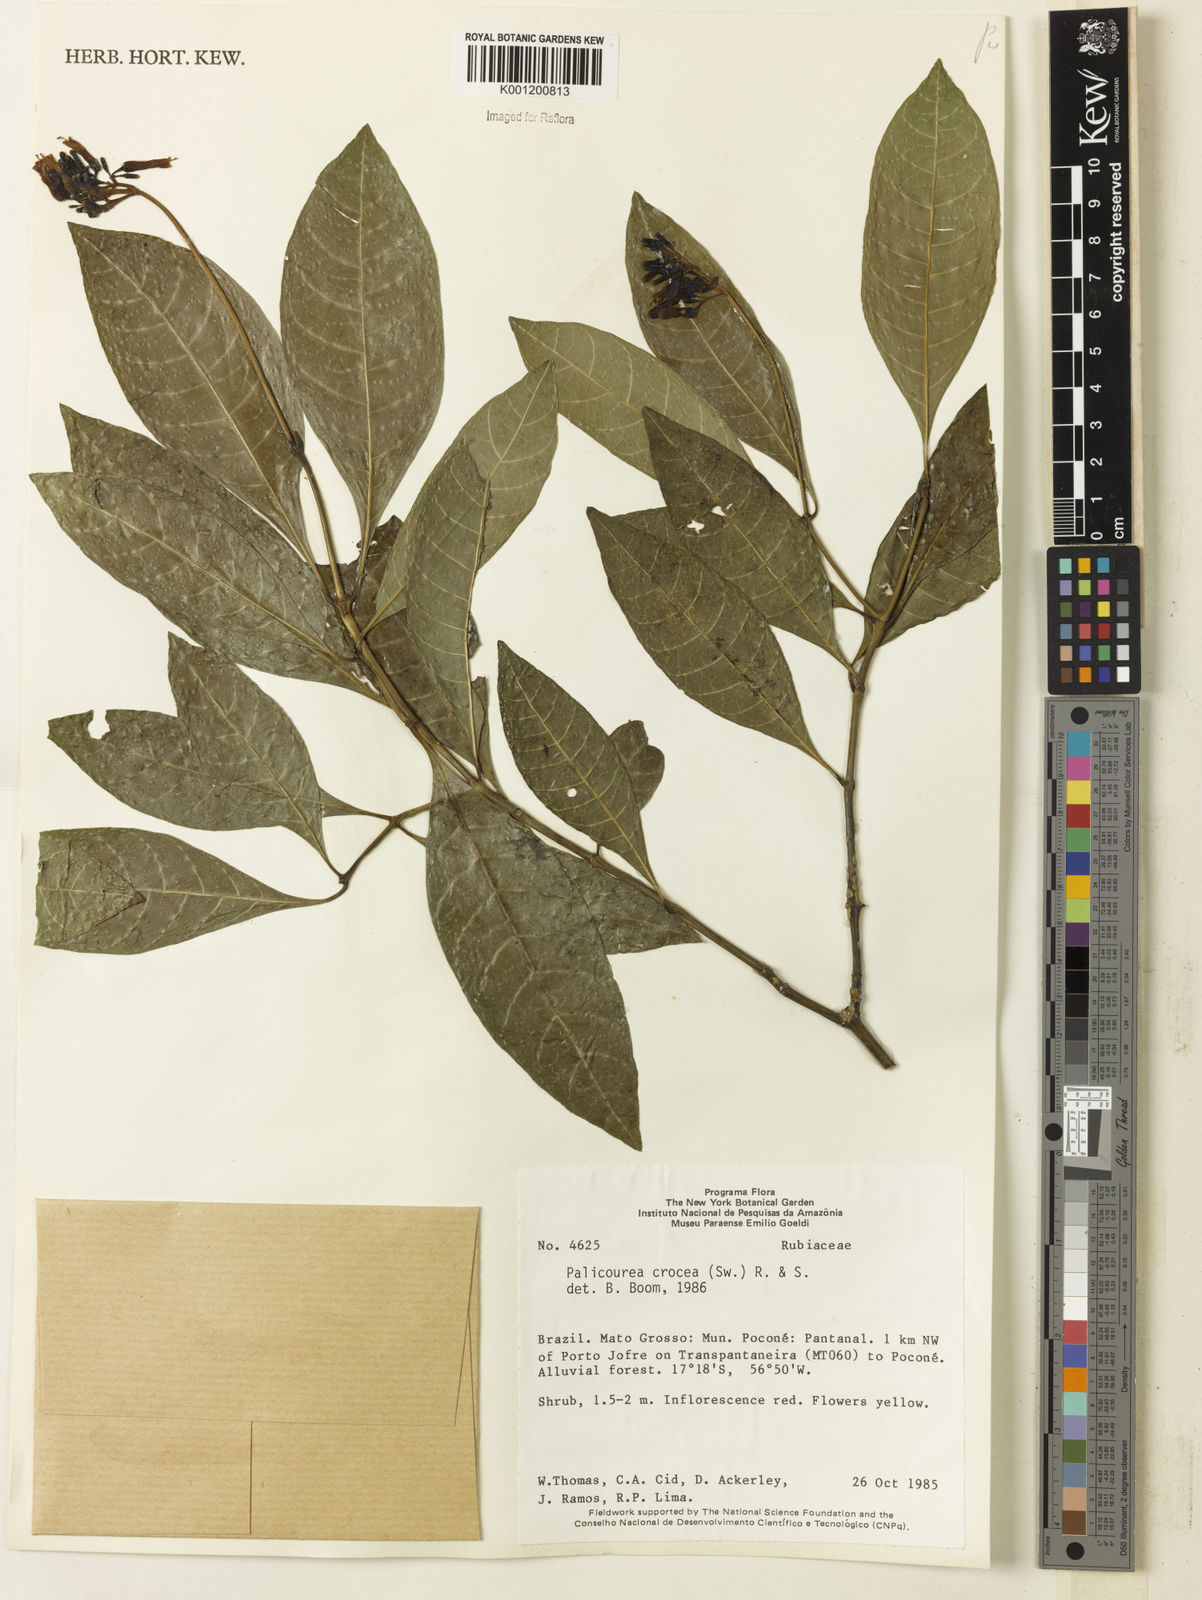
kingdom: Plantae
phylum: Tracheophyta
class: Magnoliopsida
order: Gentianales
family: Rubiaceae
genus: Palicourea
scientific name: Palicourea crocea
